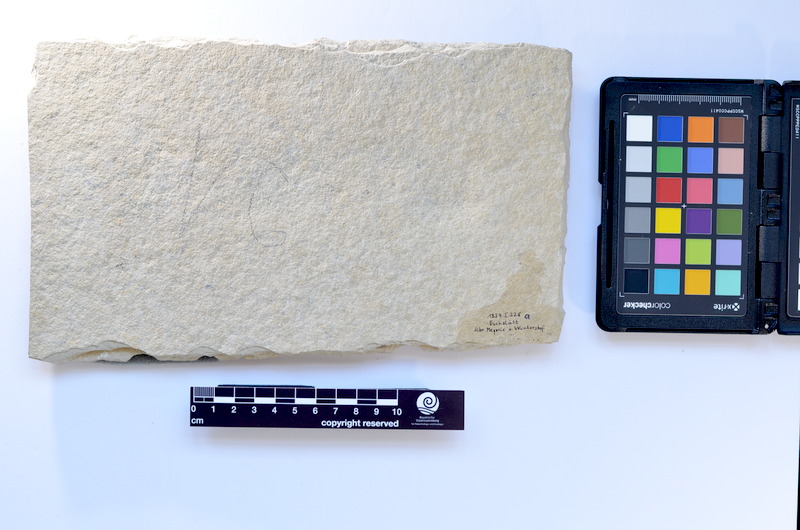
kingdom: Animalia
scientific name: Animalia
